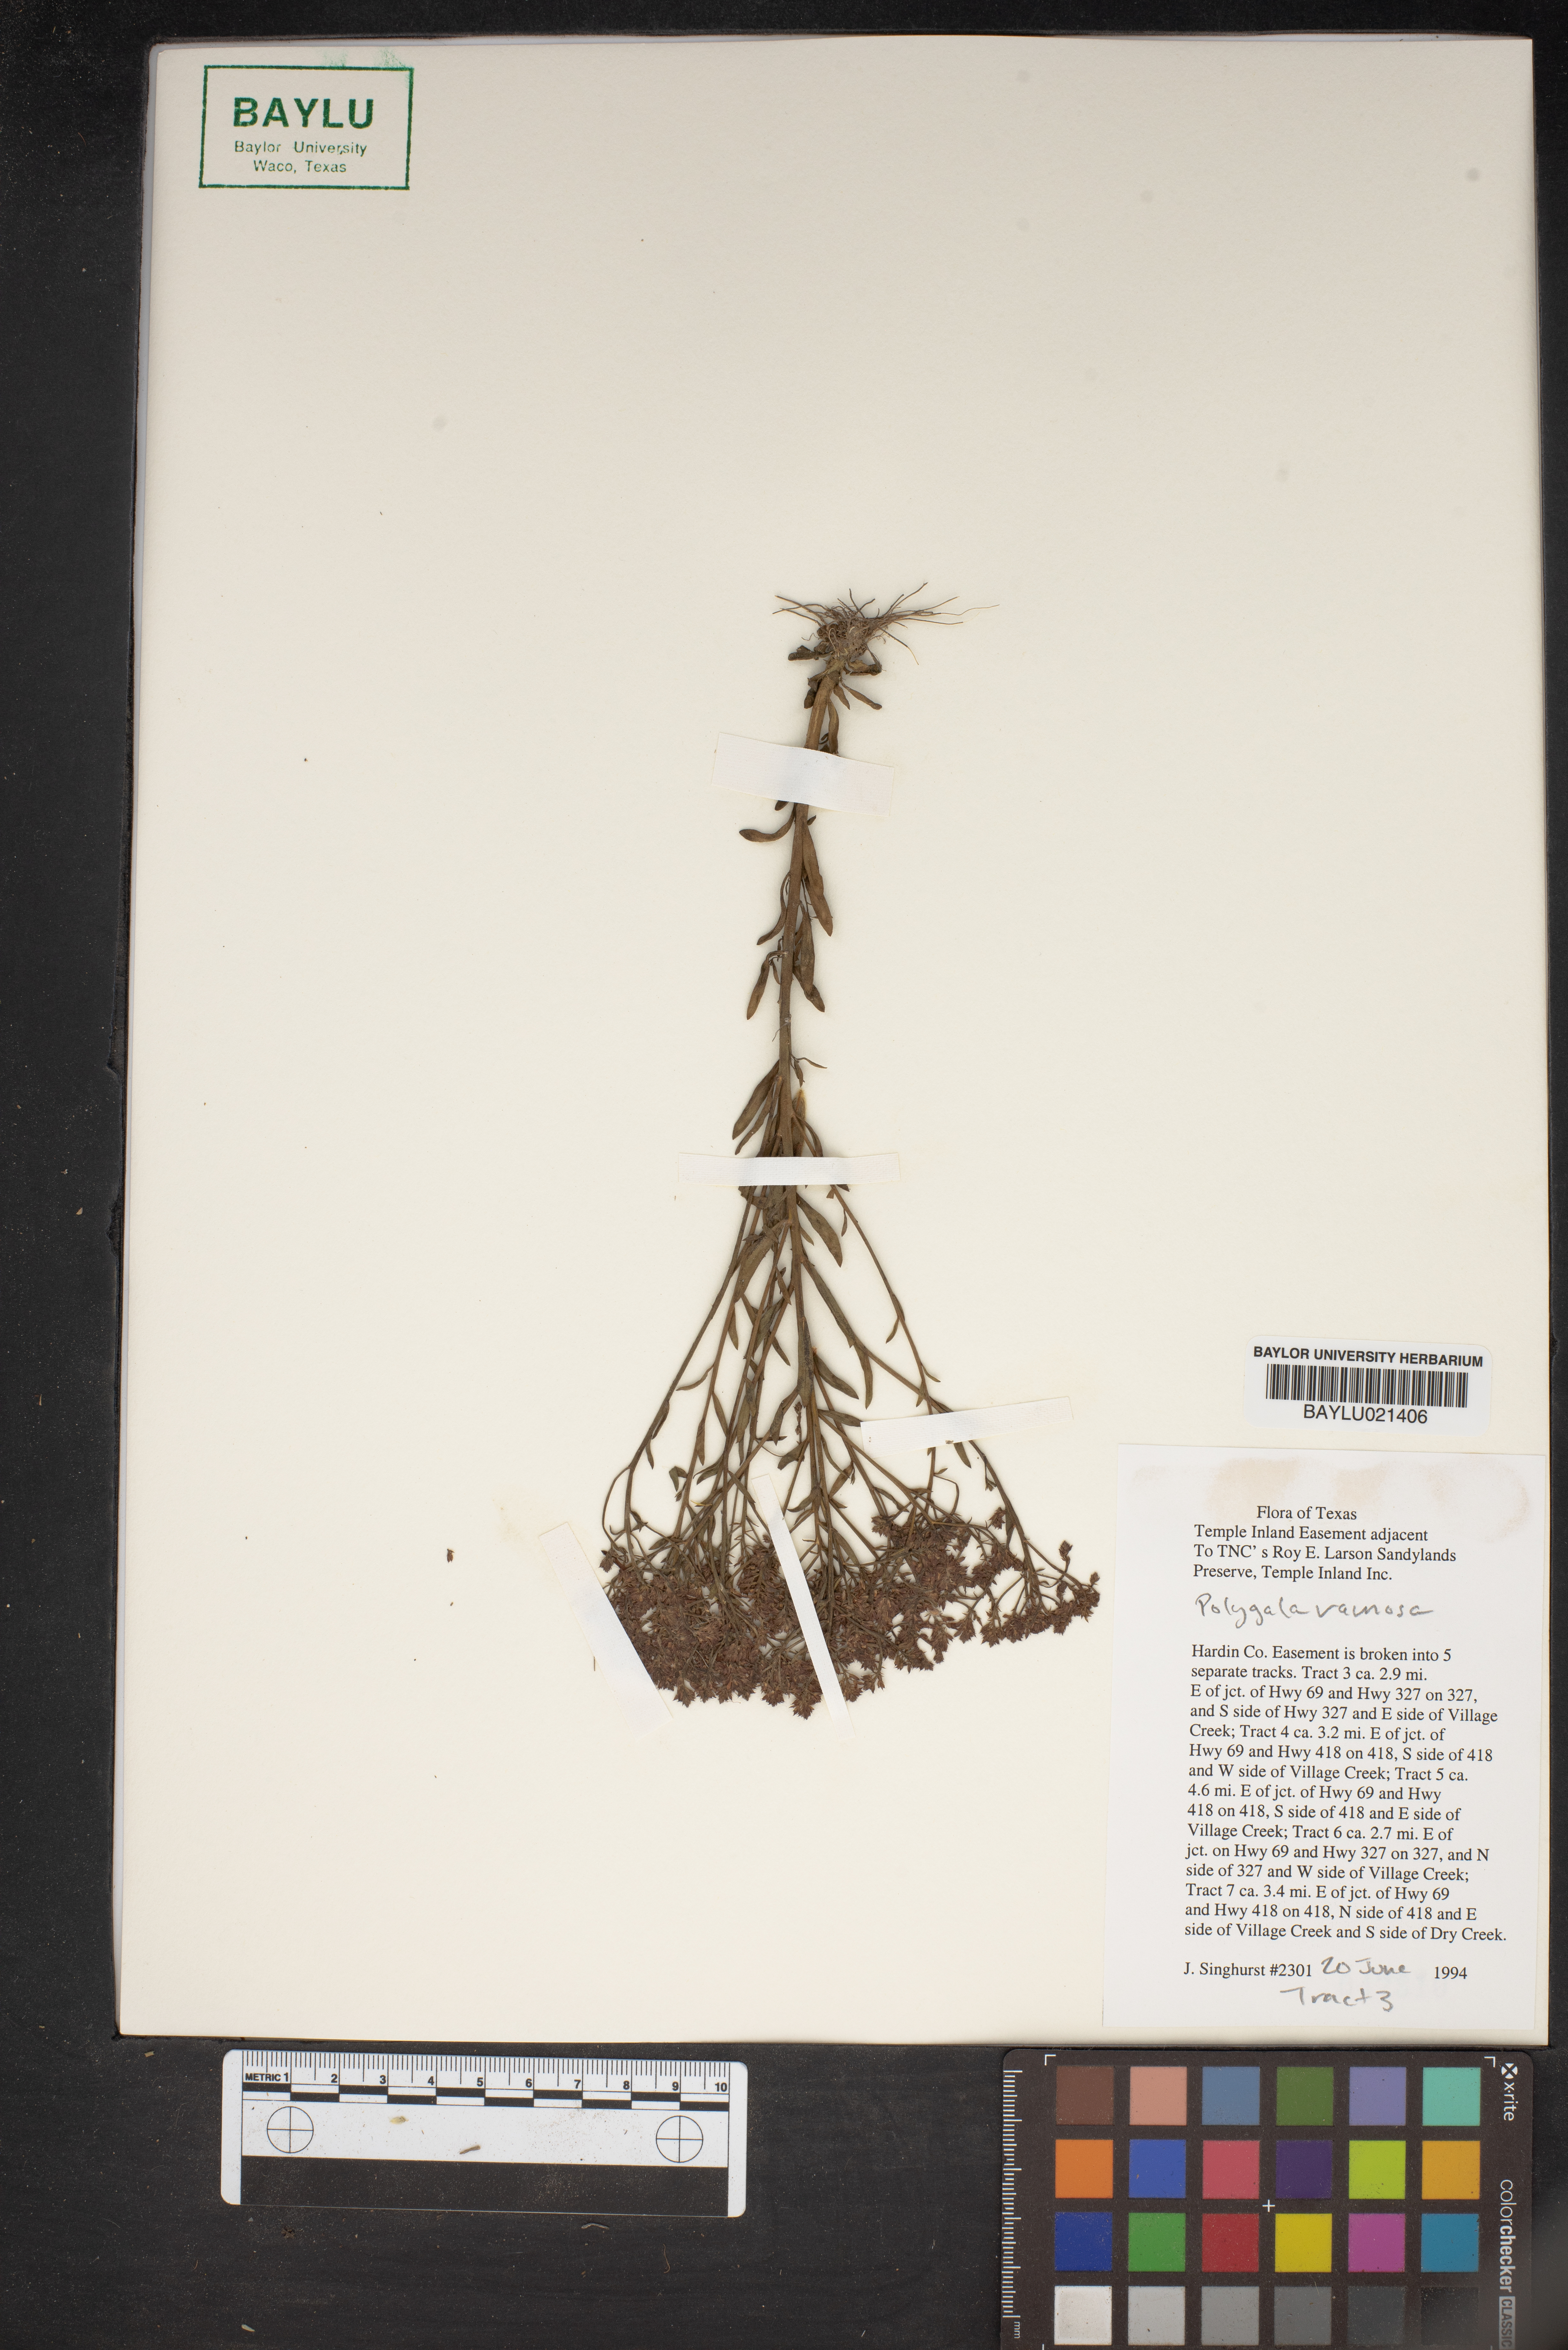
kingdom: Plantae
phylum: Tracheophyta
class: Magnoliopsida
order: Fabales
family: Polygalaceae
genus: Polygala
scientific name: Polygala ramosa
